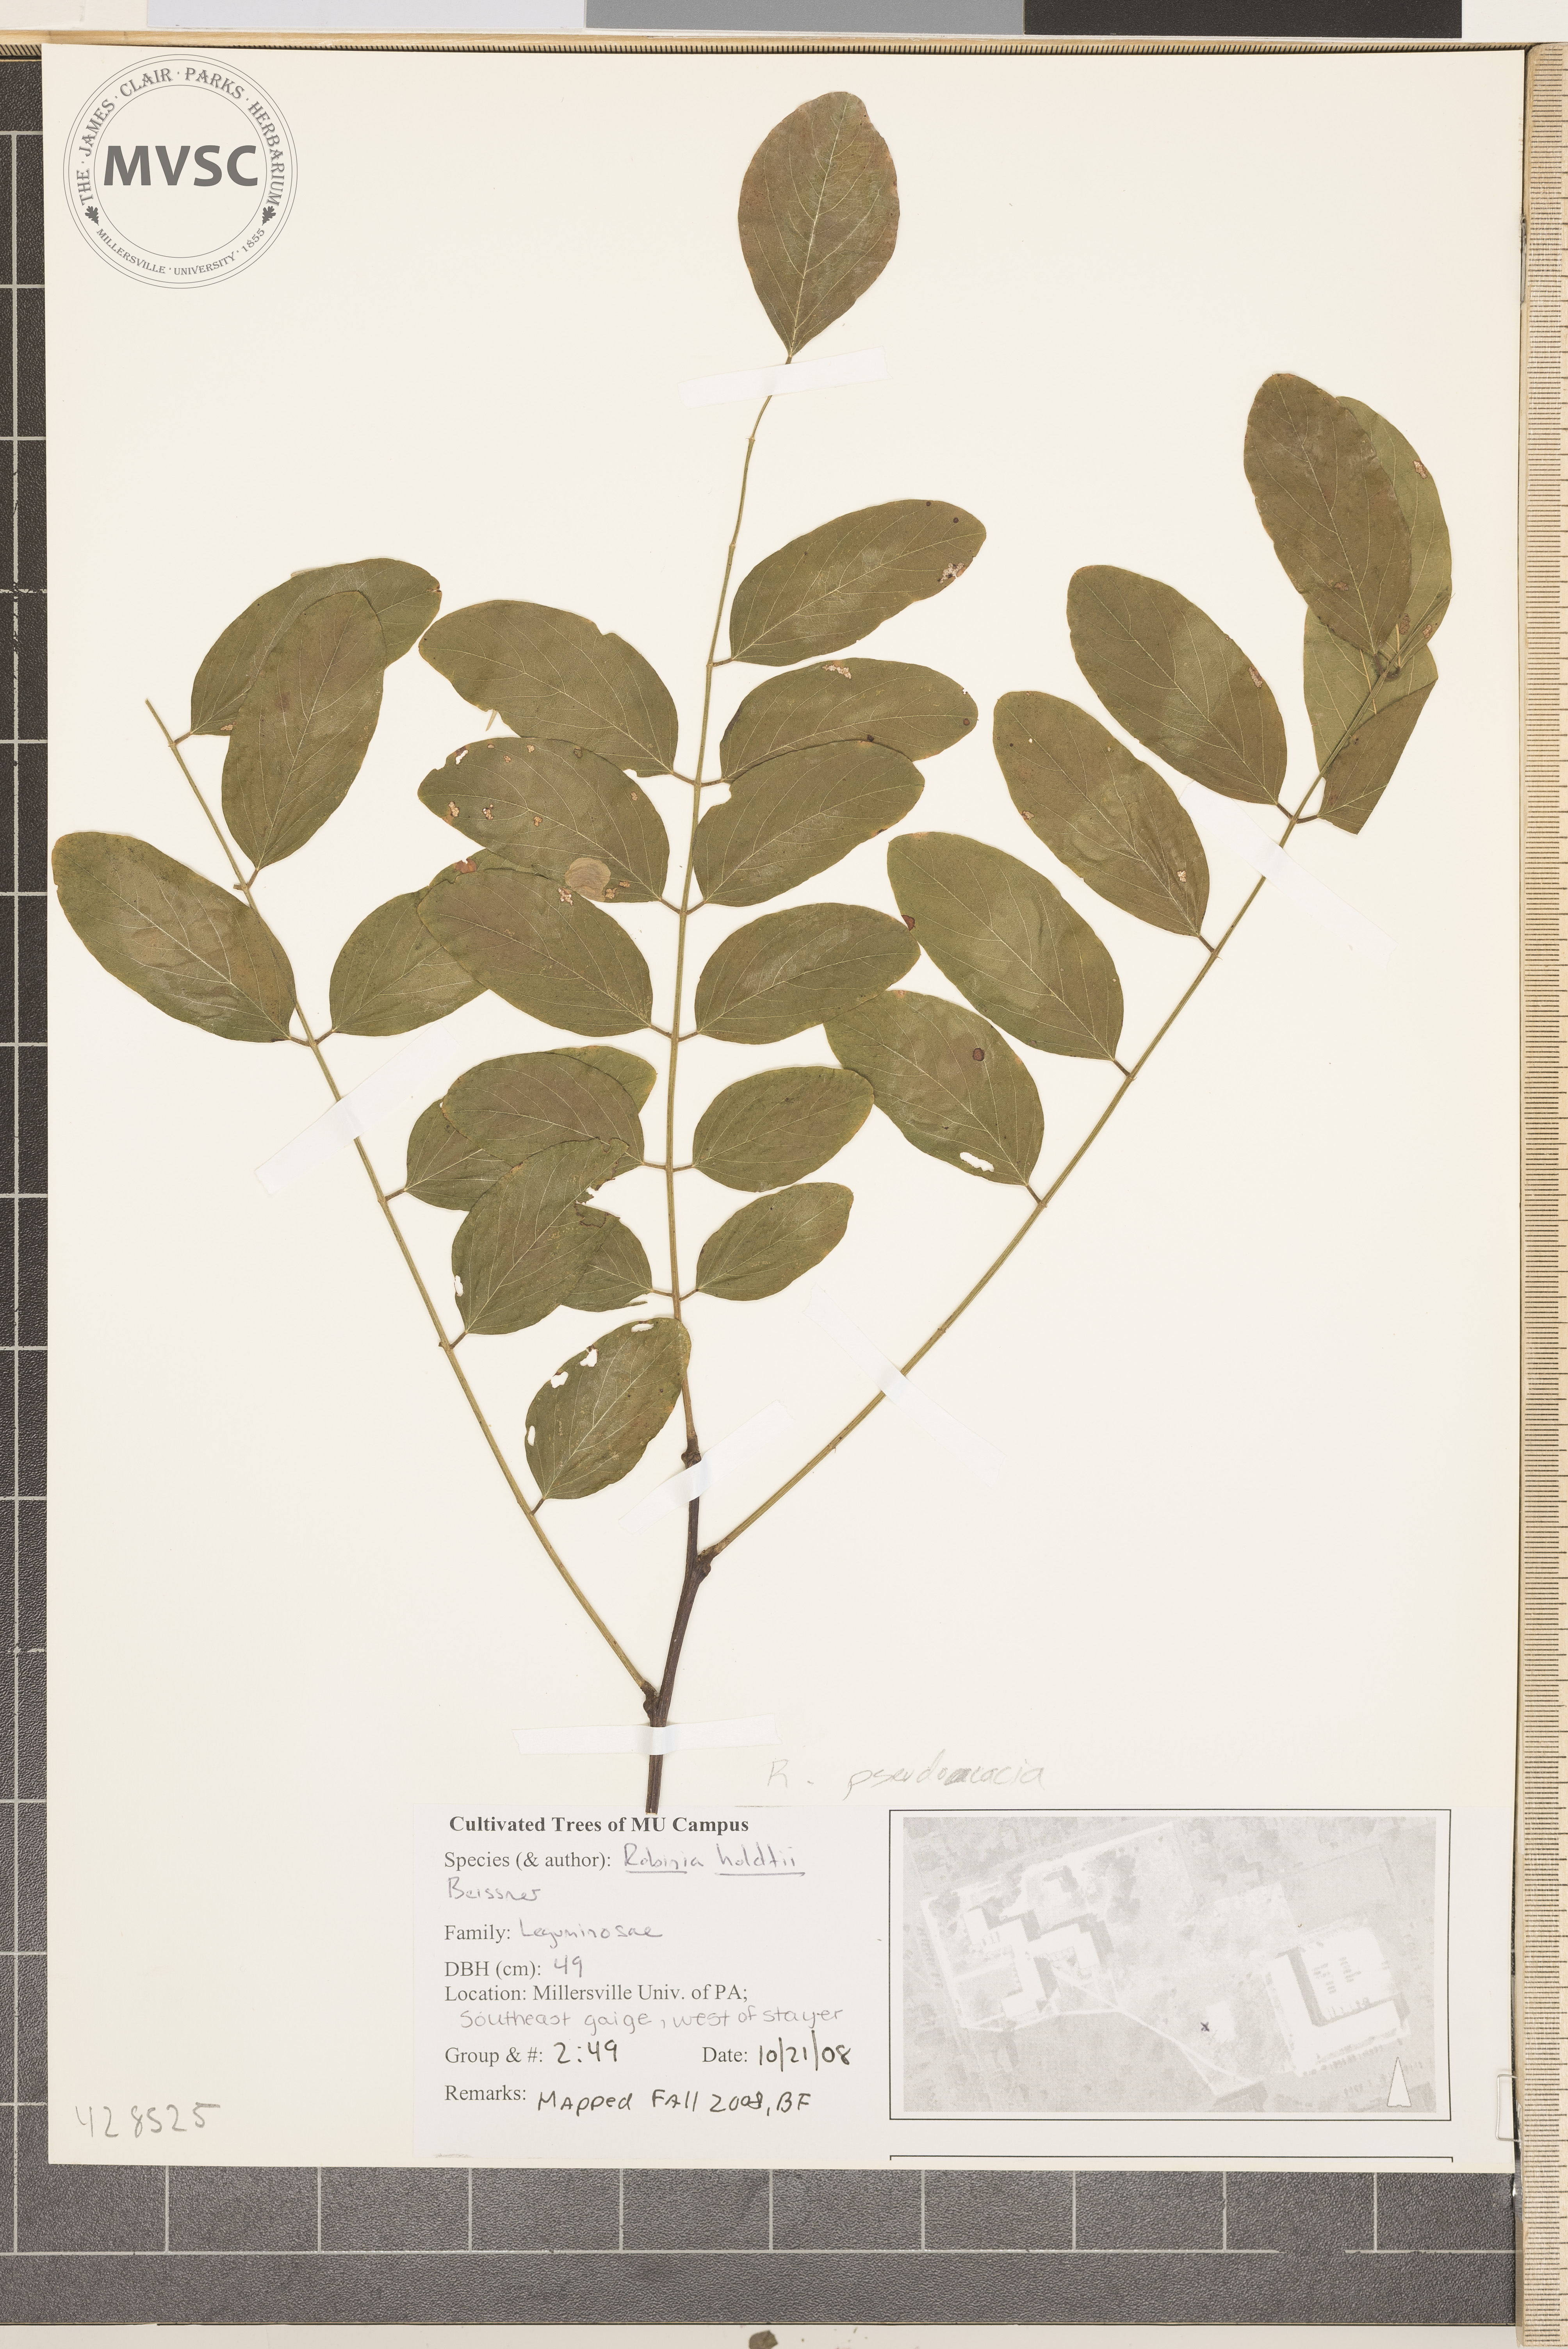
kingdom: Plantae
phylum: Tracheophyta
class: Magnoliopsida
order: Fabales
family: Fabaceae
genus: Robinia
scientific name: Robinia pseudoacacia
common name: Black locust
